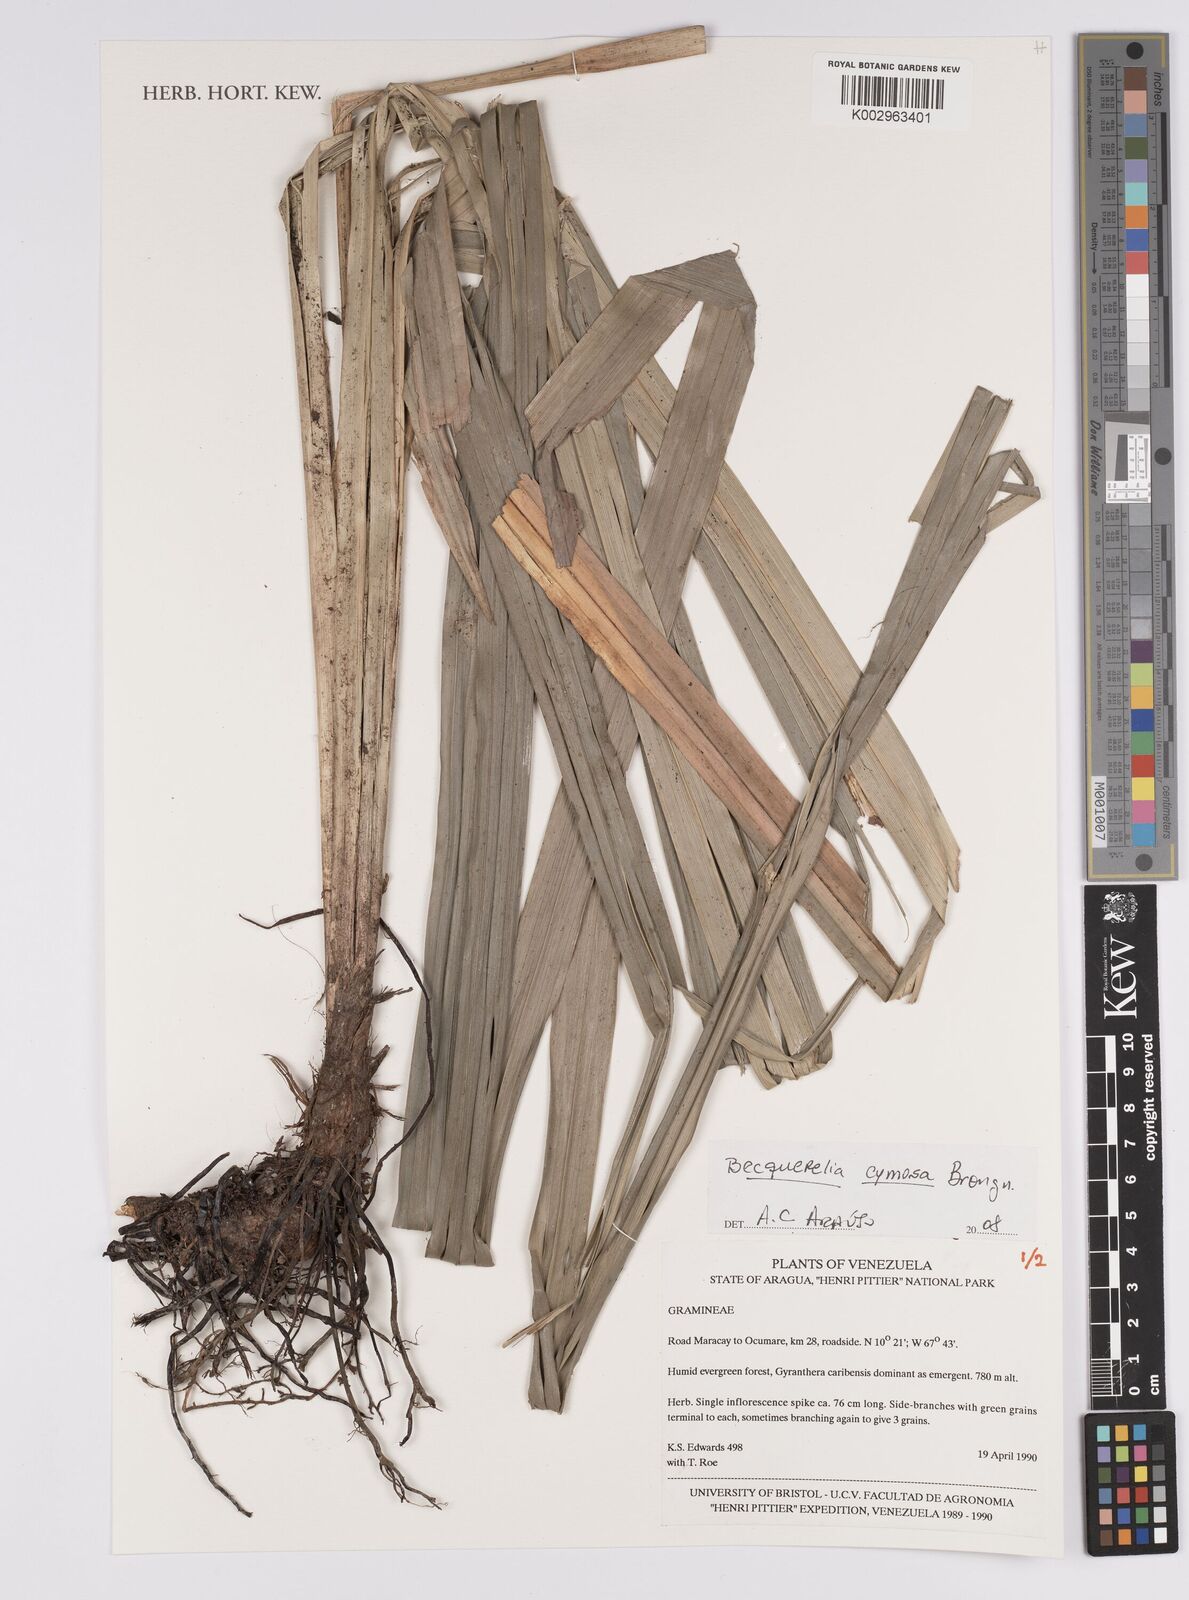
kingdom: Plantae
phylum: Tracheophyta
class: Liliopsida
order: Poales
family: Cyperaceae
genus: Becquerelia
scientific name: Becquerelia cymosa
